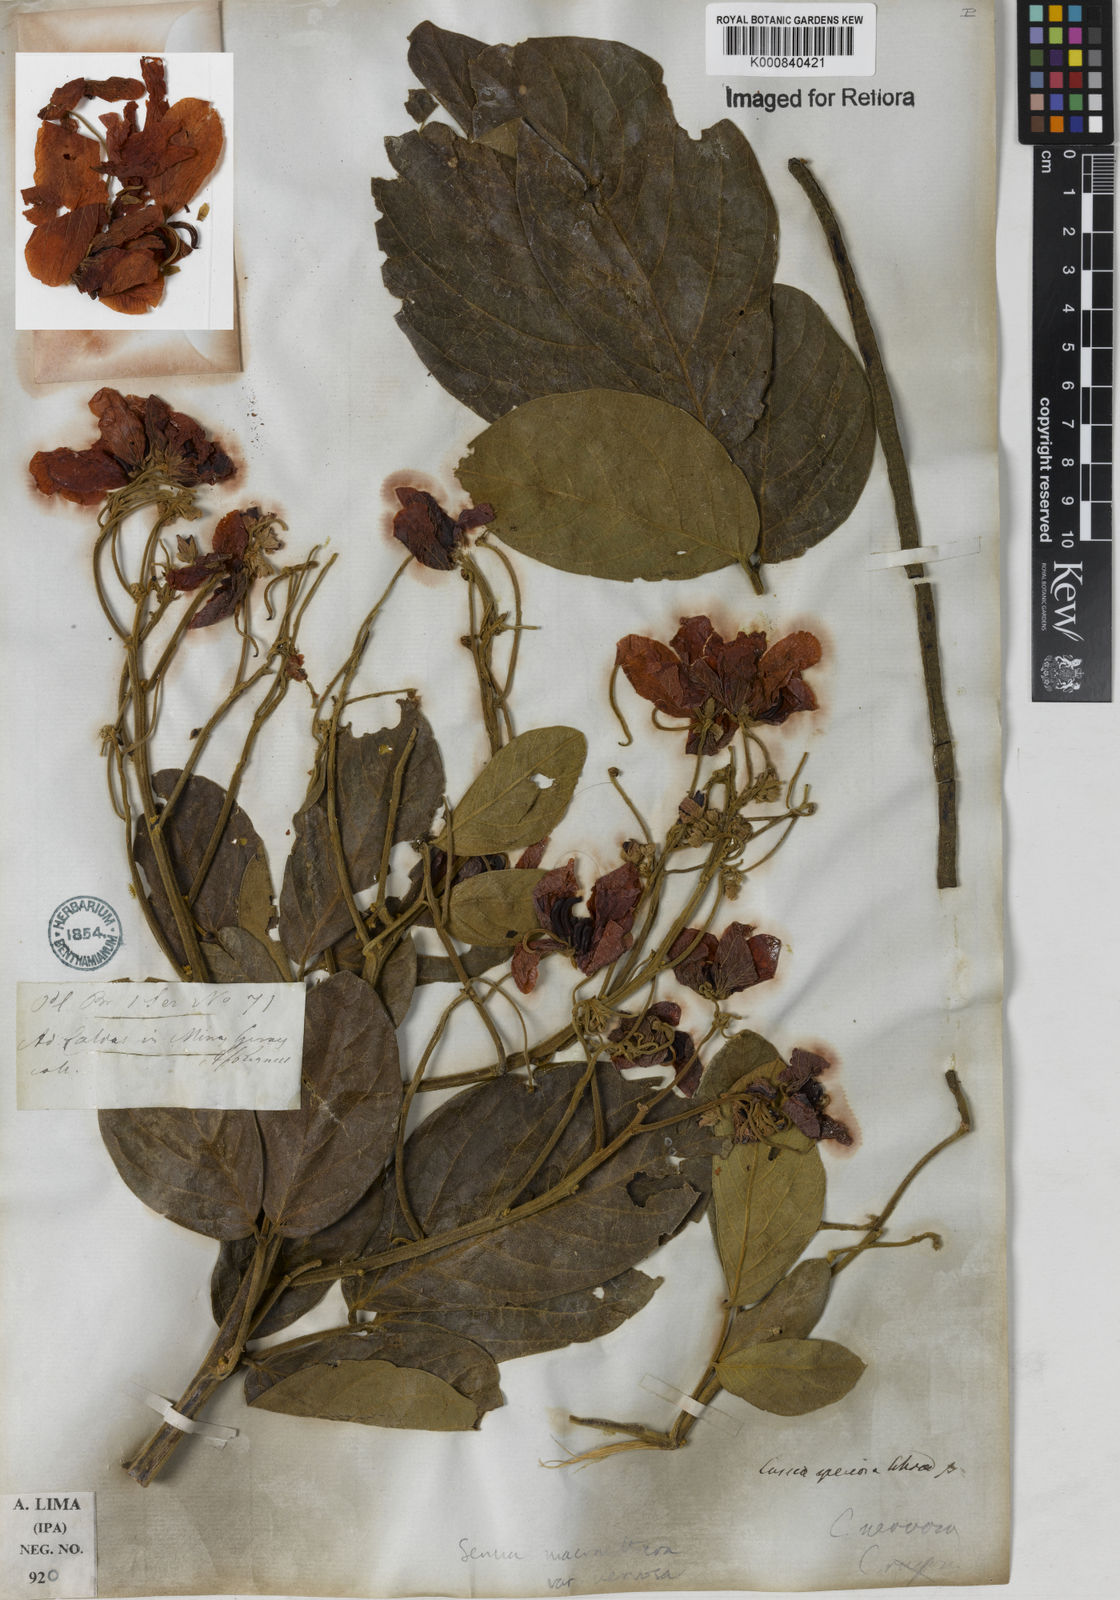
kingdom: Plantae
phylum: Tracheophyta
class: Magnoliopsida
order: Fabales
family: Fabaceae
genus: Senna
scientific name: Senna macranthera
